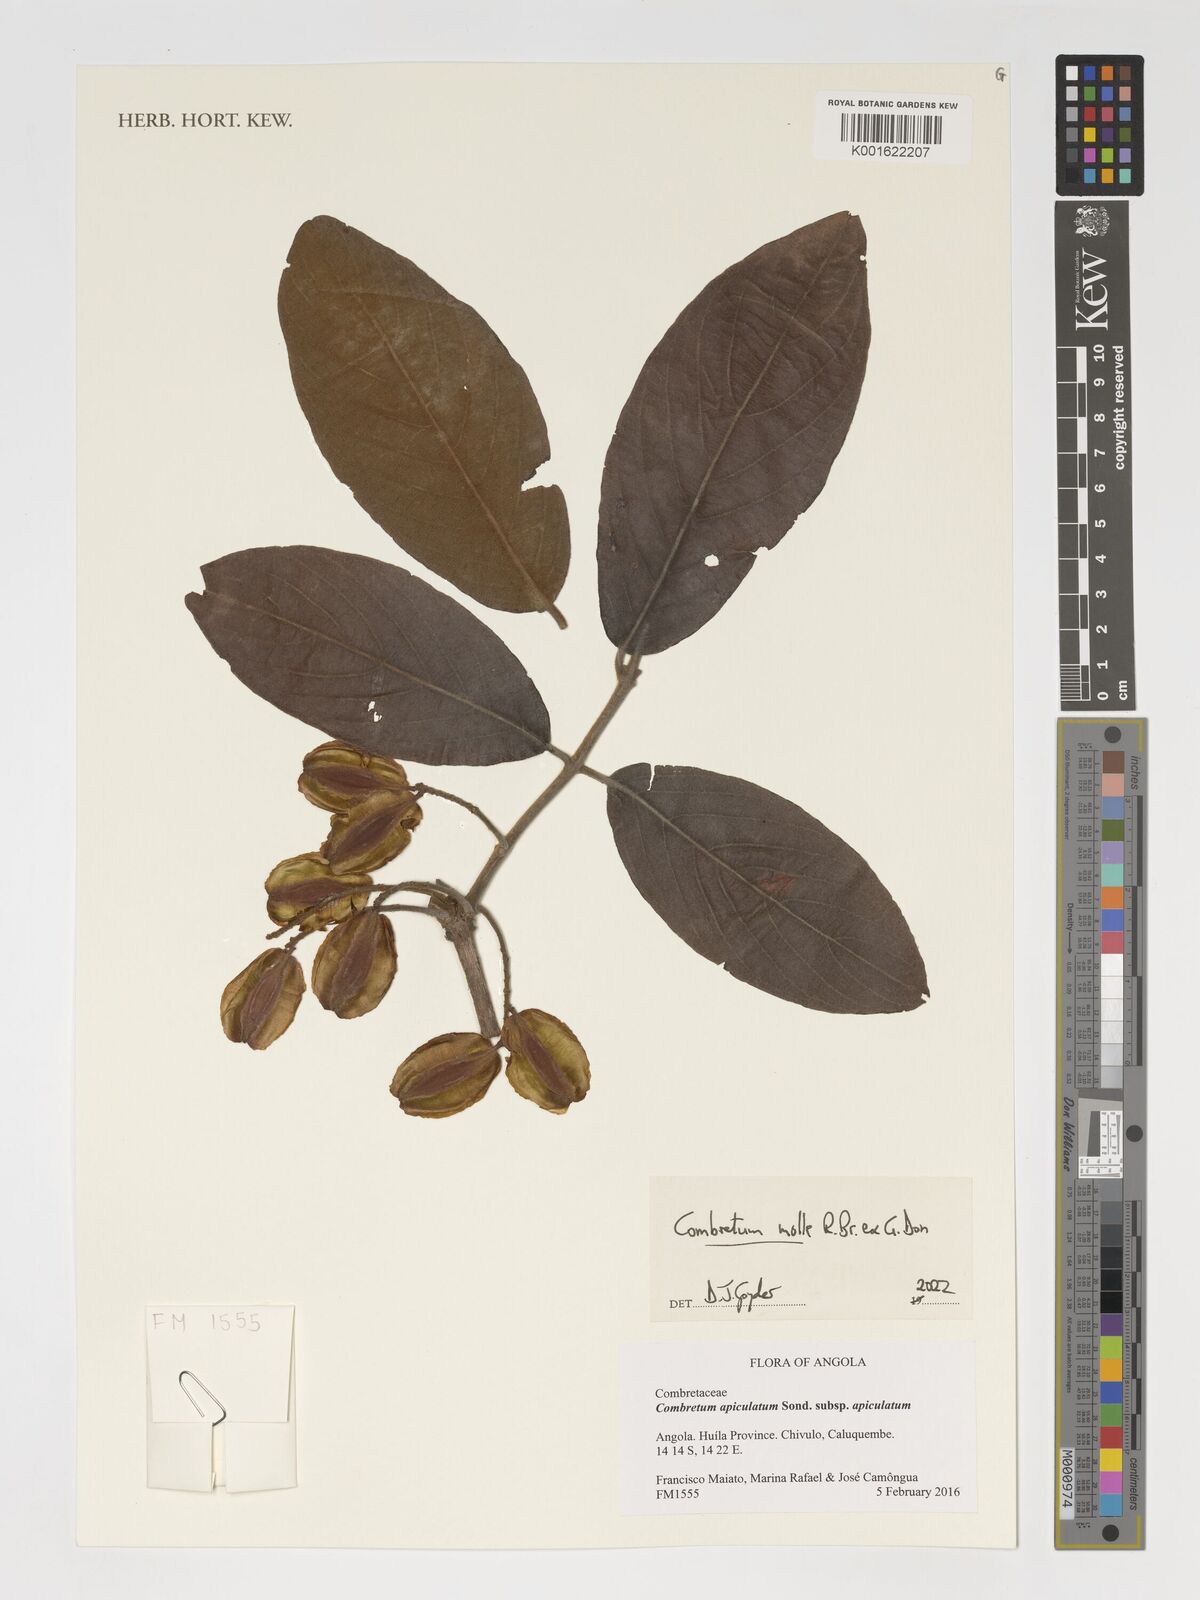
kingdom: Plantae
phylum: Tracheophyta
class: Magnoliopsida
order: Myrtales
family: Combretaceae
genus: Combretum
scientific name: Combretum molle
